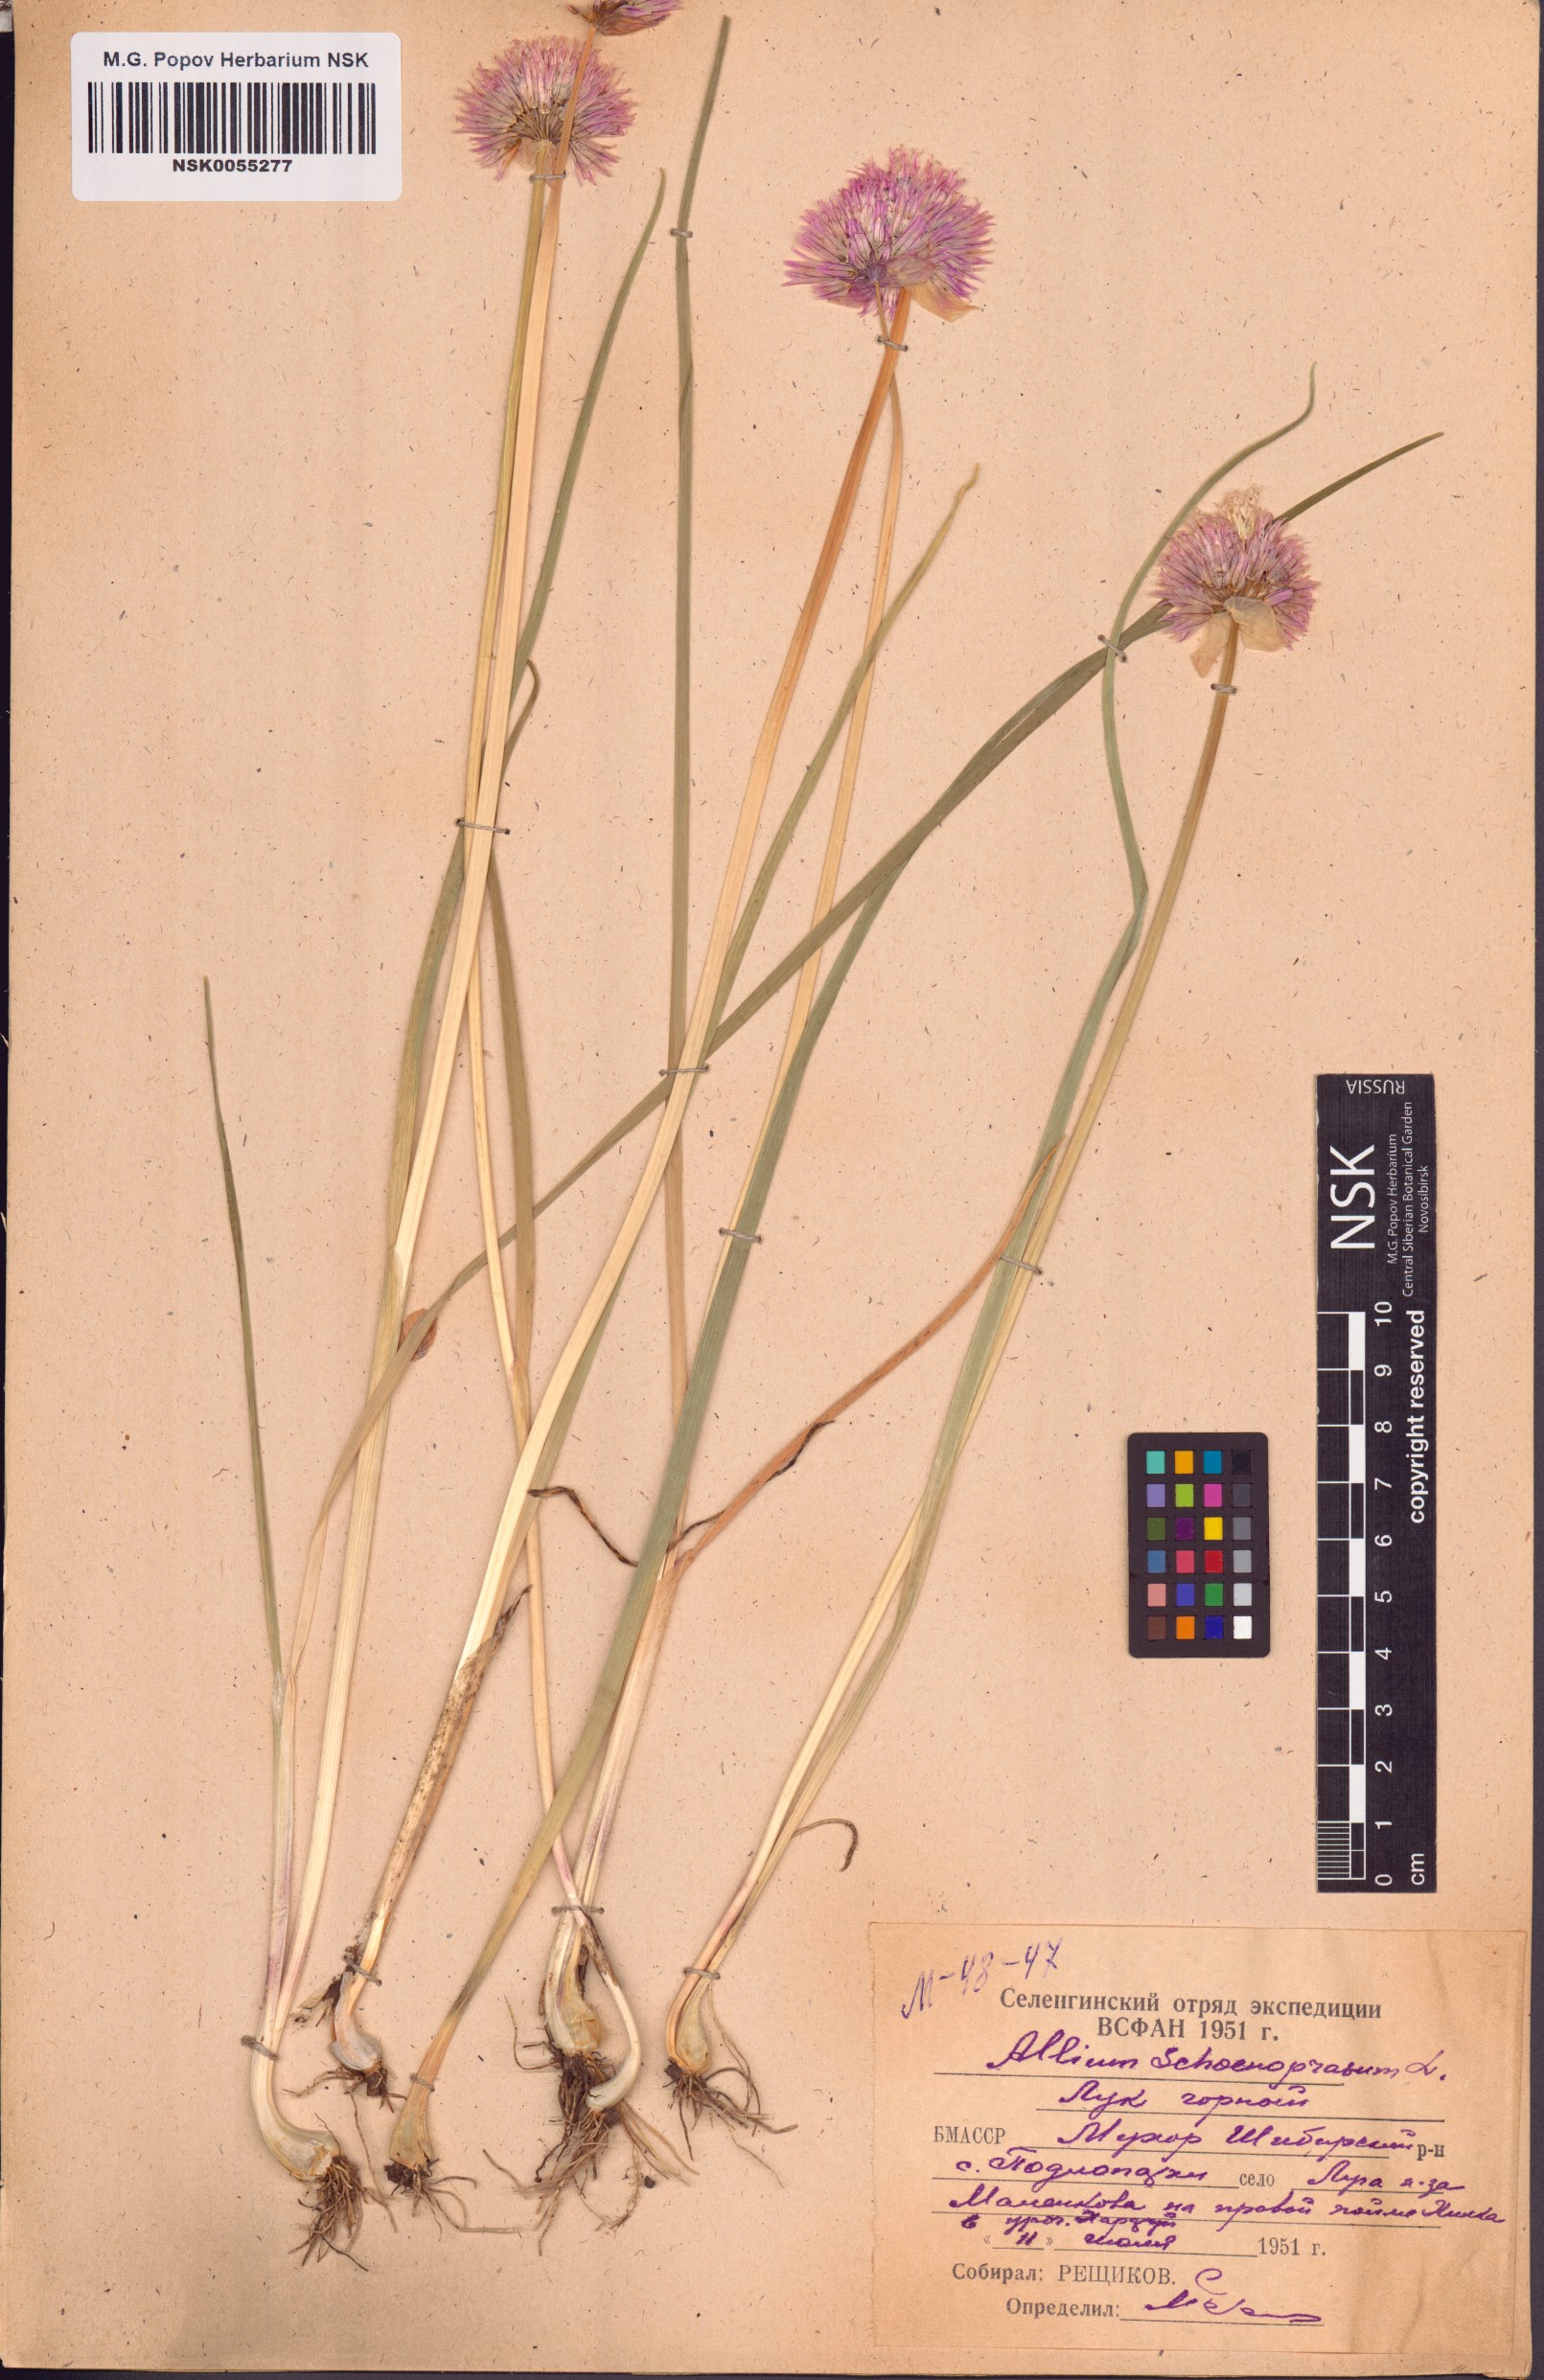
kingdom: Plantae
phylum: Tracheophyta
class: Liliopsida
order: Asparagales
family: Amaryllidaceae
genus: Allium
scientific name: Allium schoenoprasum
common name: Chives
